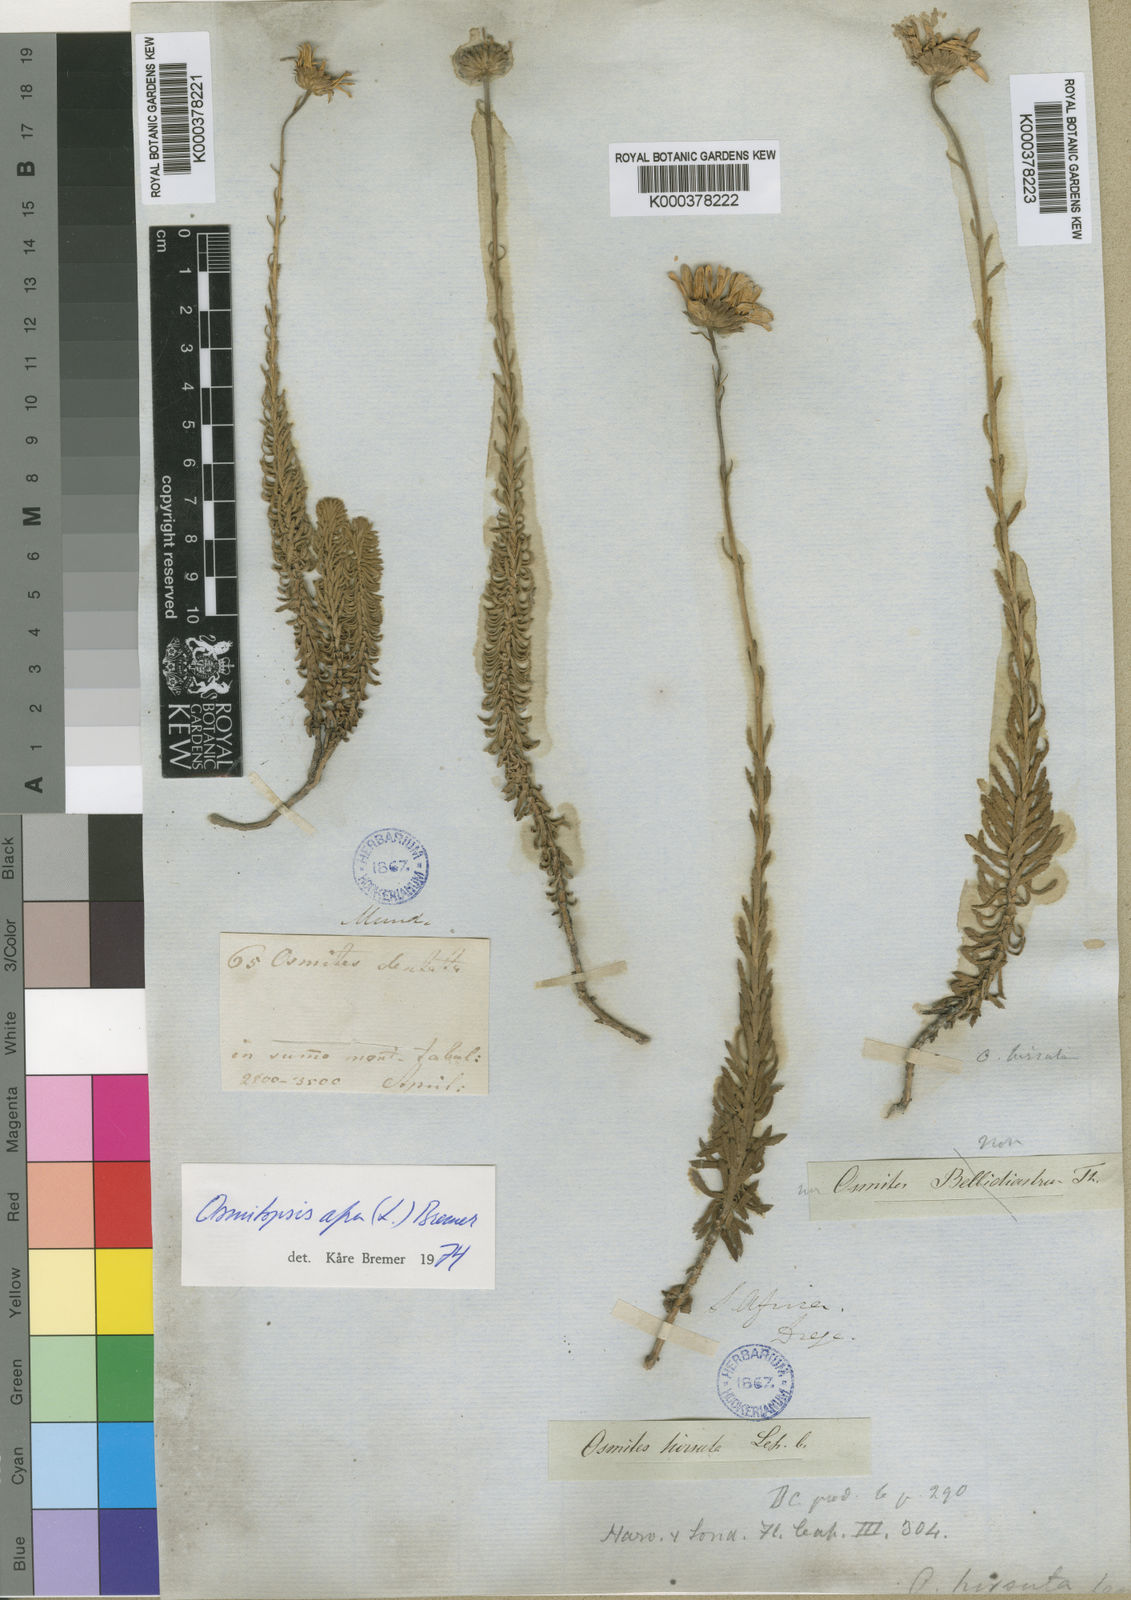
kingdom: Plantae
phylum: Tracheophyta
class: Magnoliopsida
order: Asterales
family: Asteraceae
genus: Osmitopsis
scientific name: Osmitopsis afra
